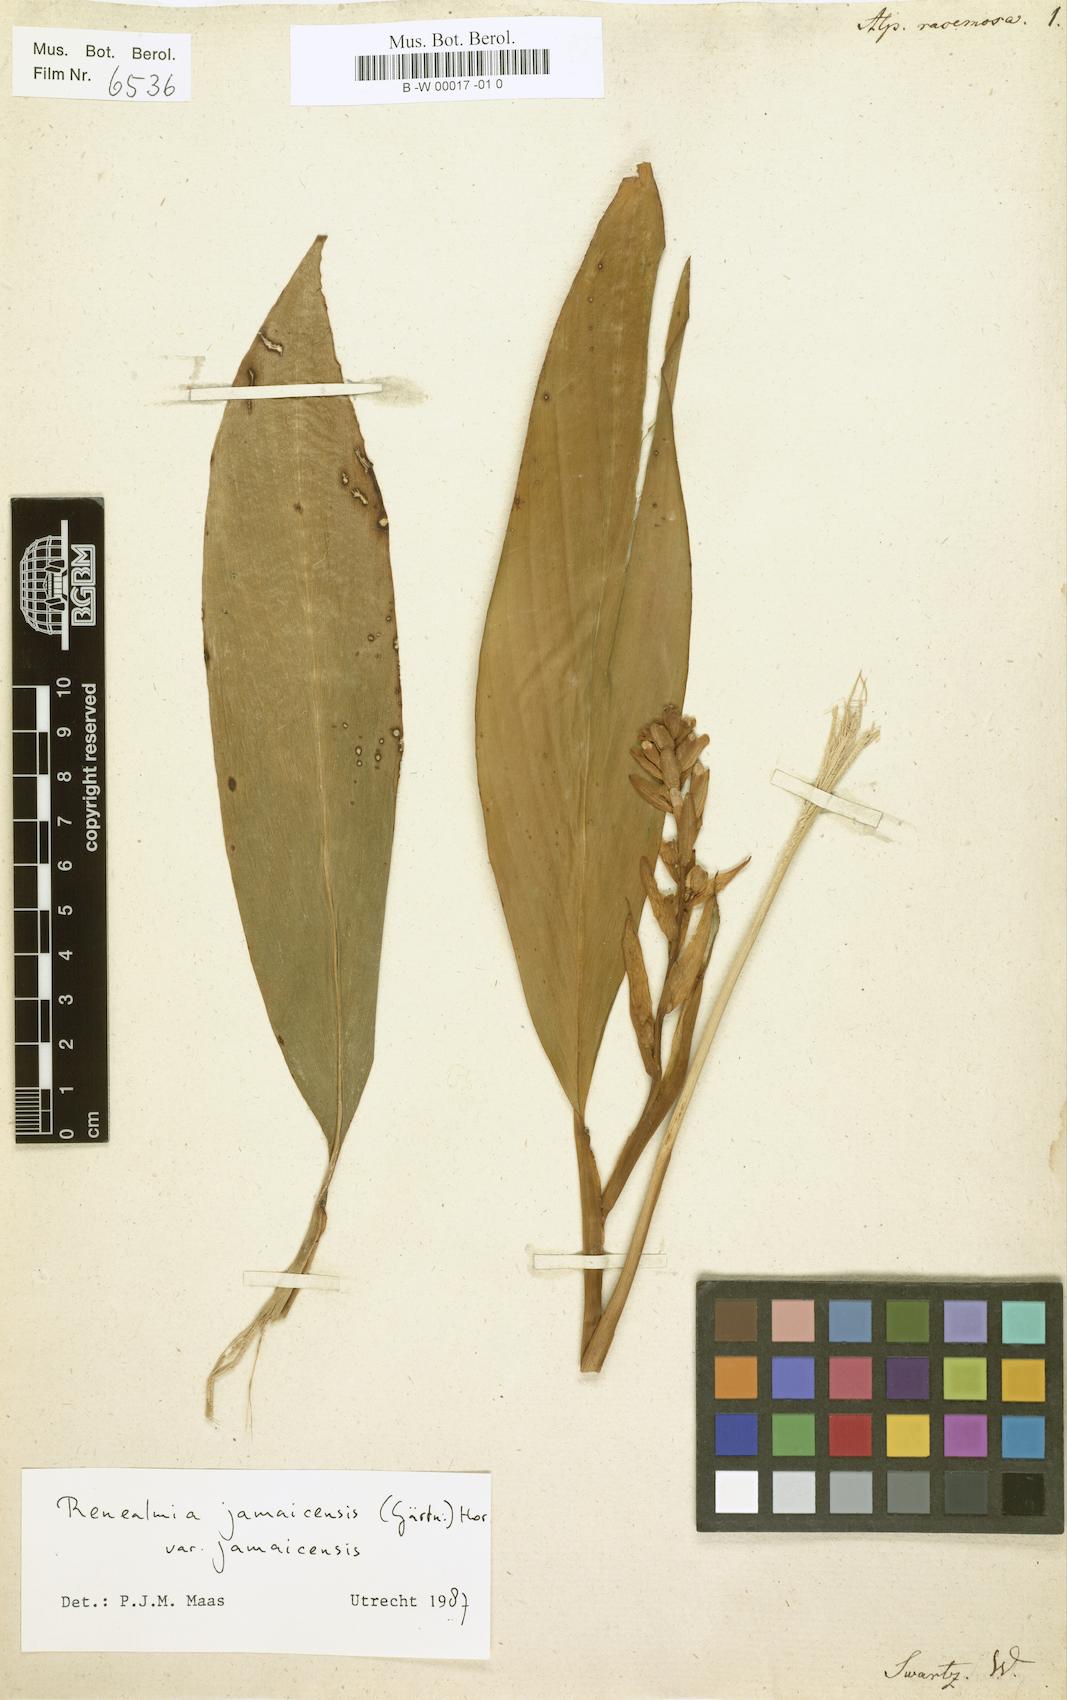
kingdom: Plantae
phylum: Tracheophyta
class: Liliopsida
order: Zingiberales
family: Zingiberaceae
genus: Renealmia
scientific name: Renealmia pyramidalis
